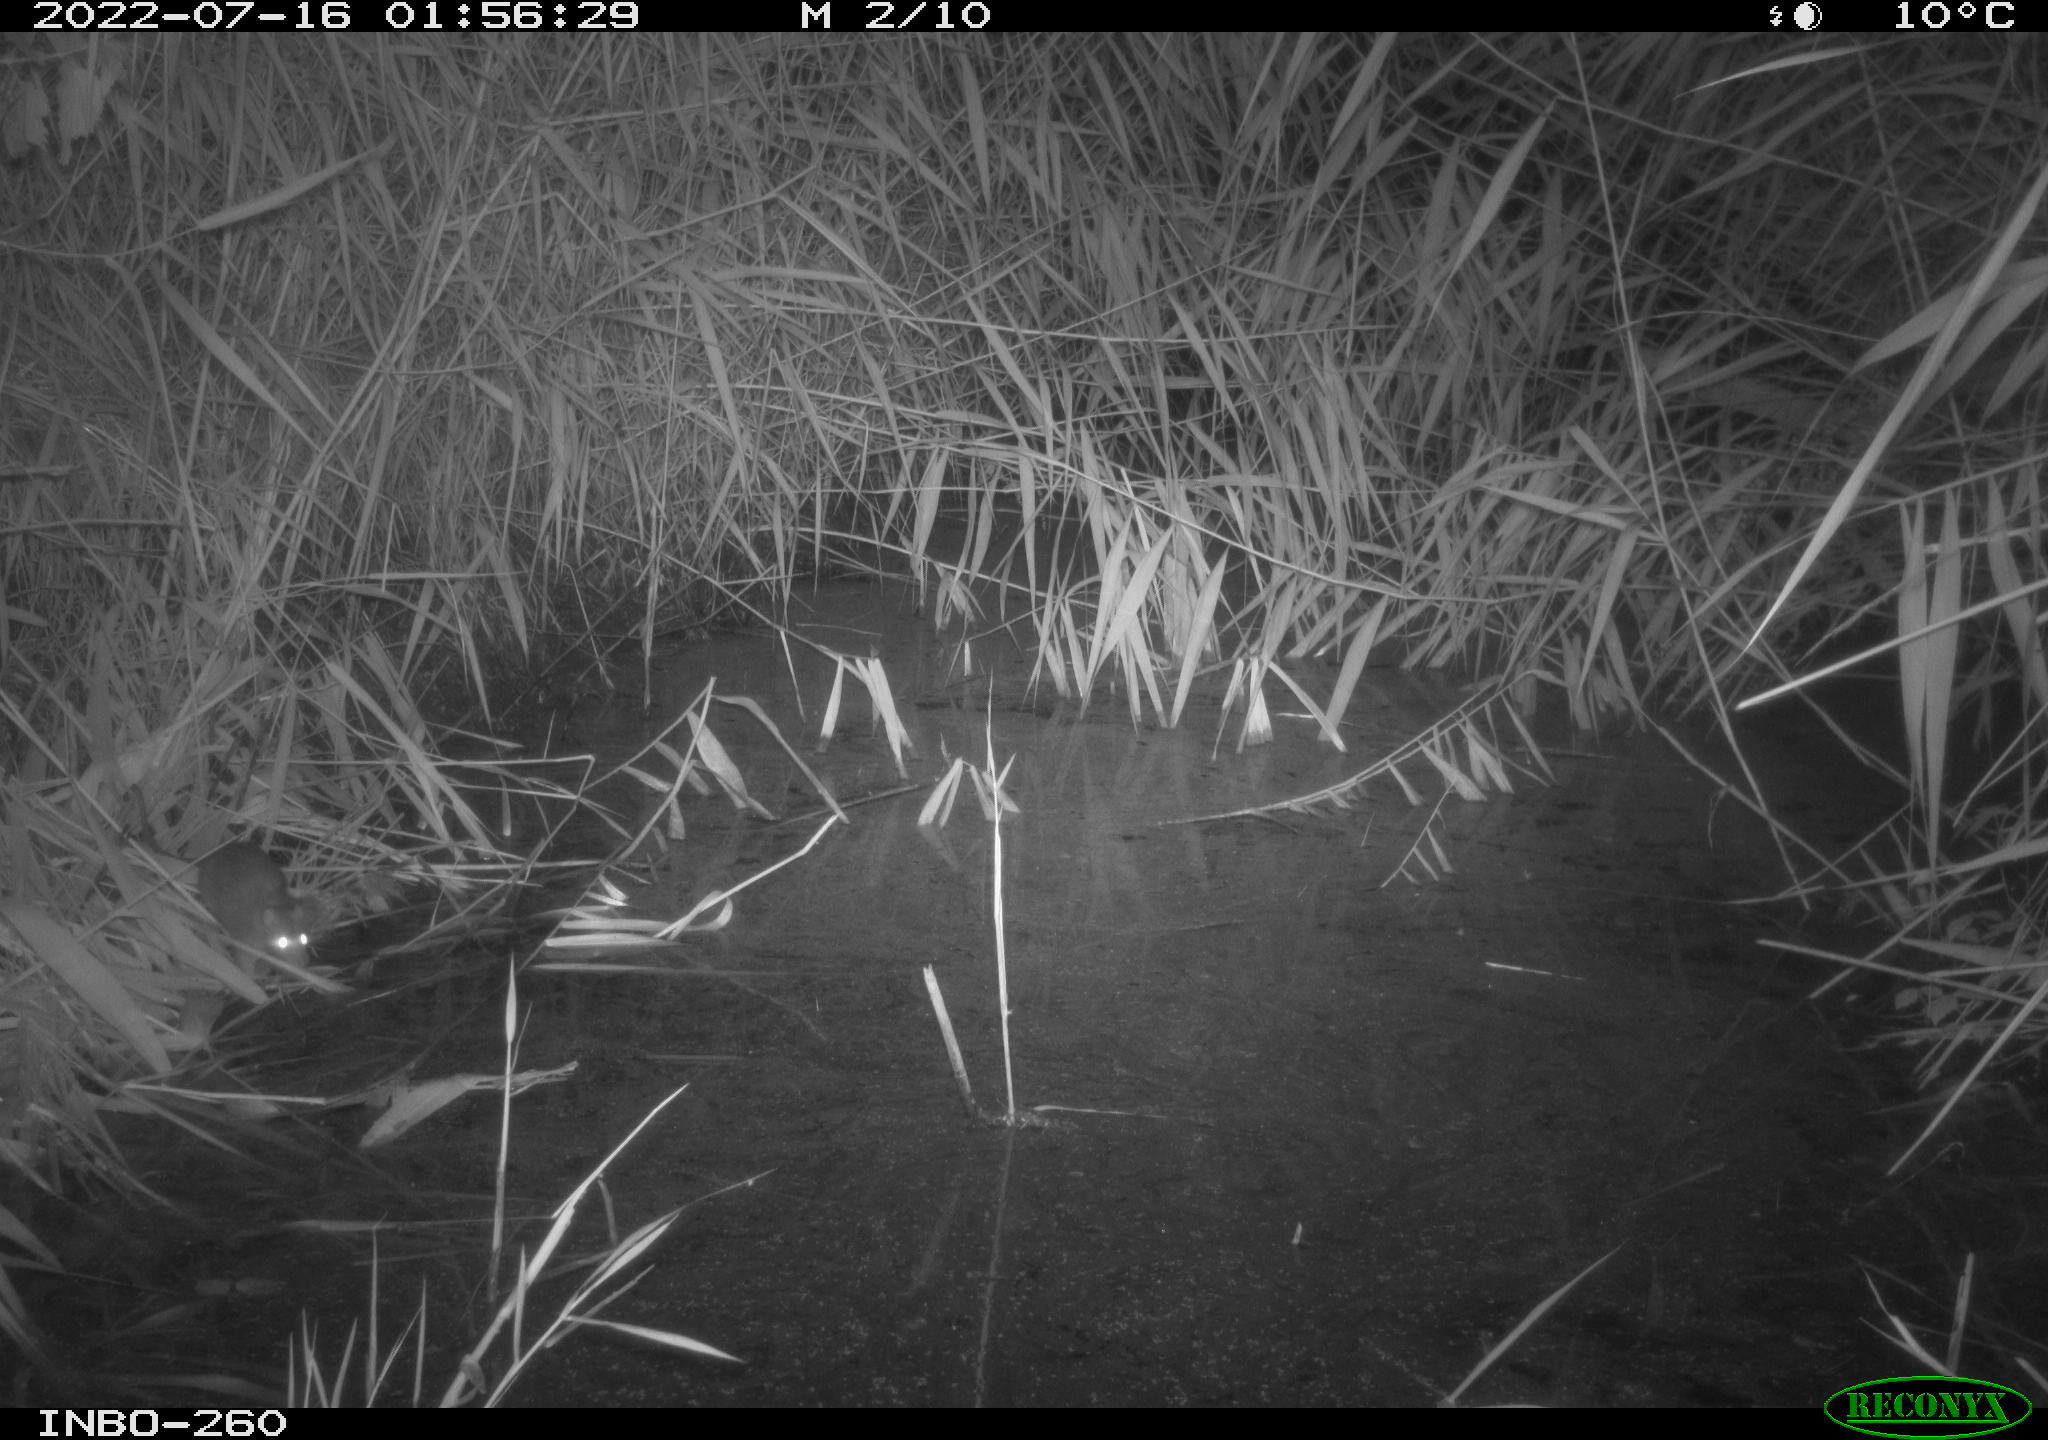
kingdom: Animalia
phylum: Chordata
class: Mammalia
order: Rodentia
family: Muridae
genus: Rattus
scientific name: Rattus norvegicus
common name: Brown rat
